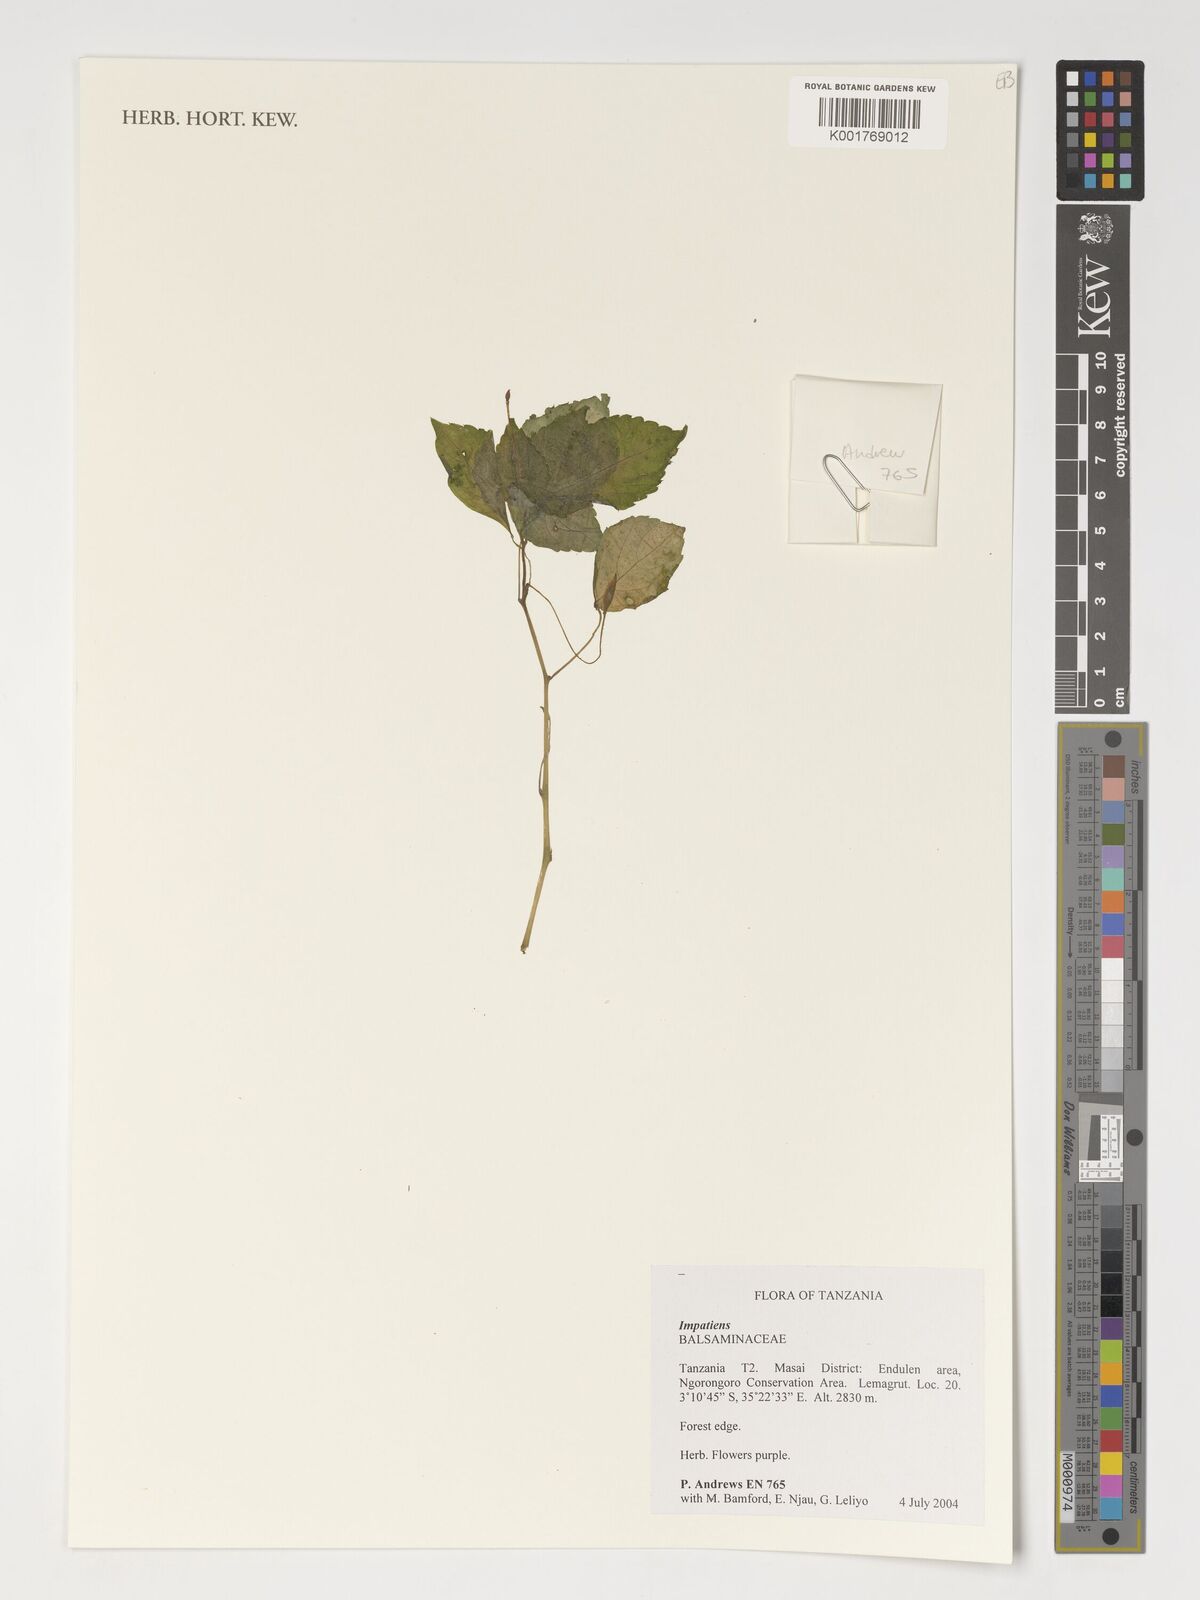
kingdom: Plantae
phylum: Tracheophyta
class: Magnoliopsida
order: Ericales
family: Balsaminaceae
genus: Impatiens
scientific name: Impatiens
